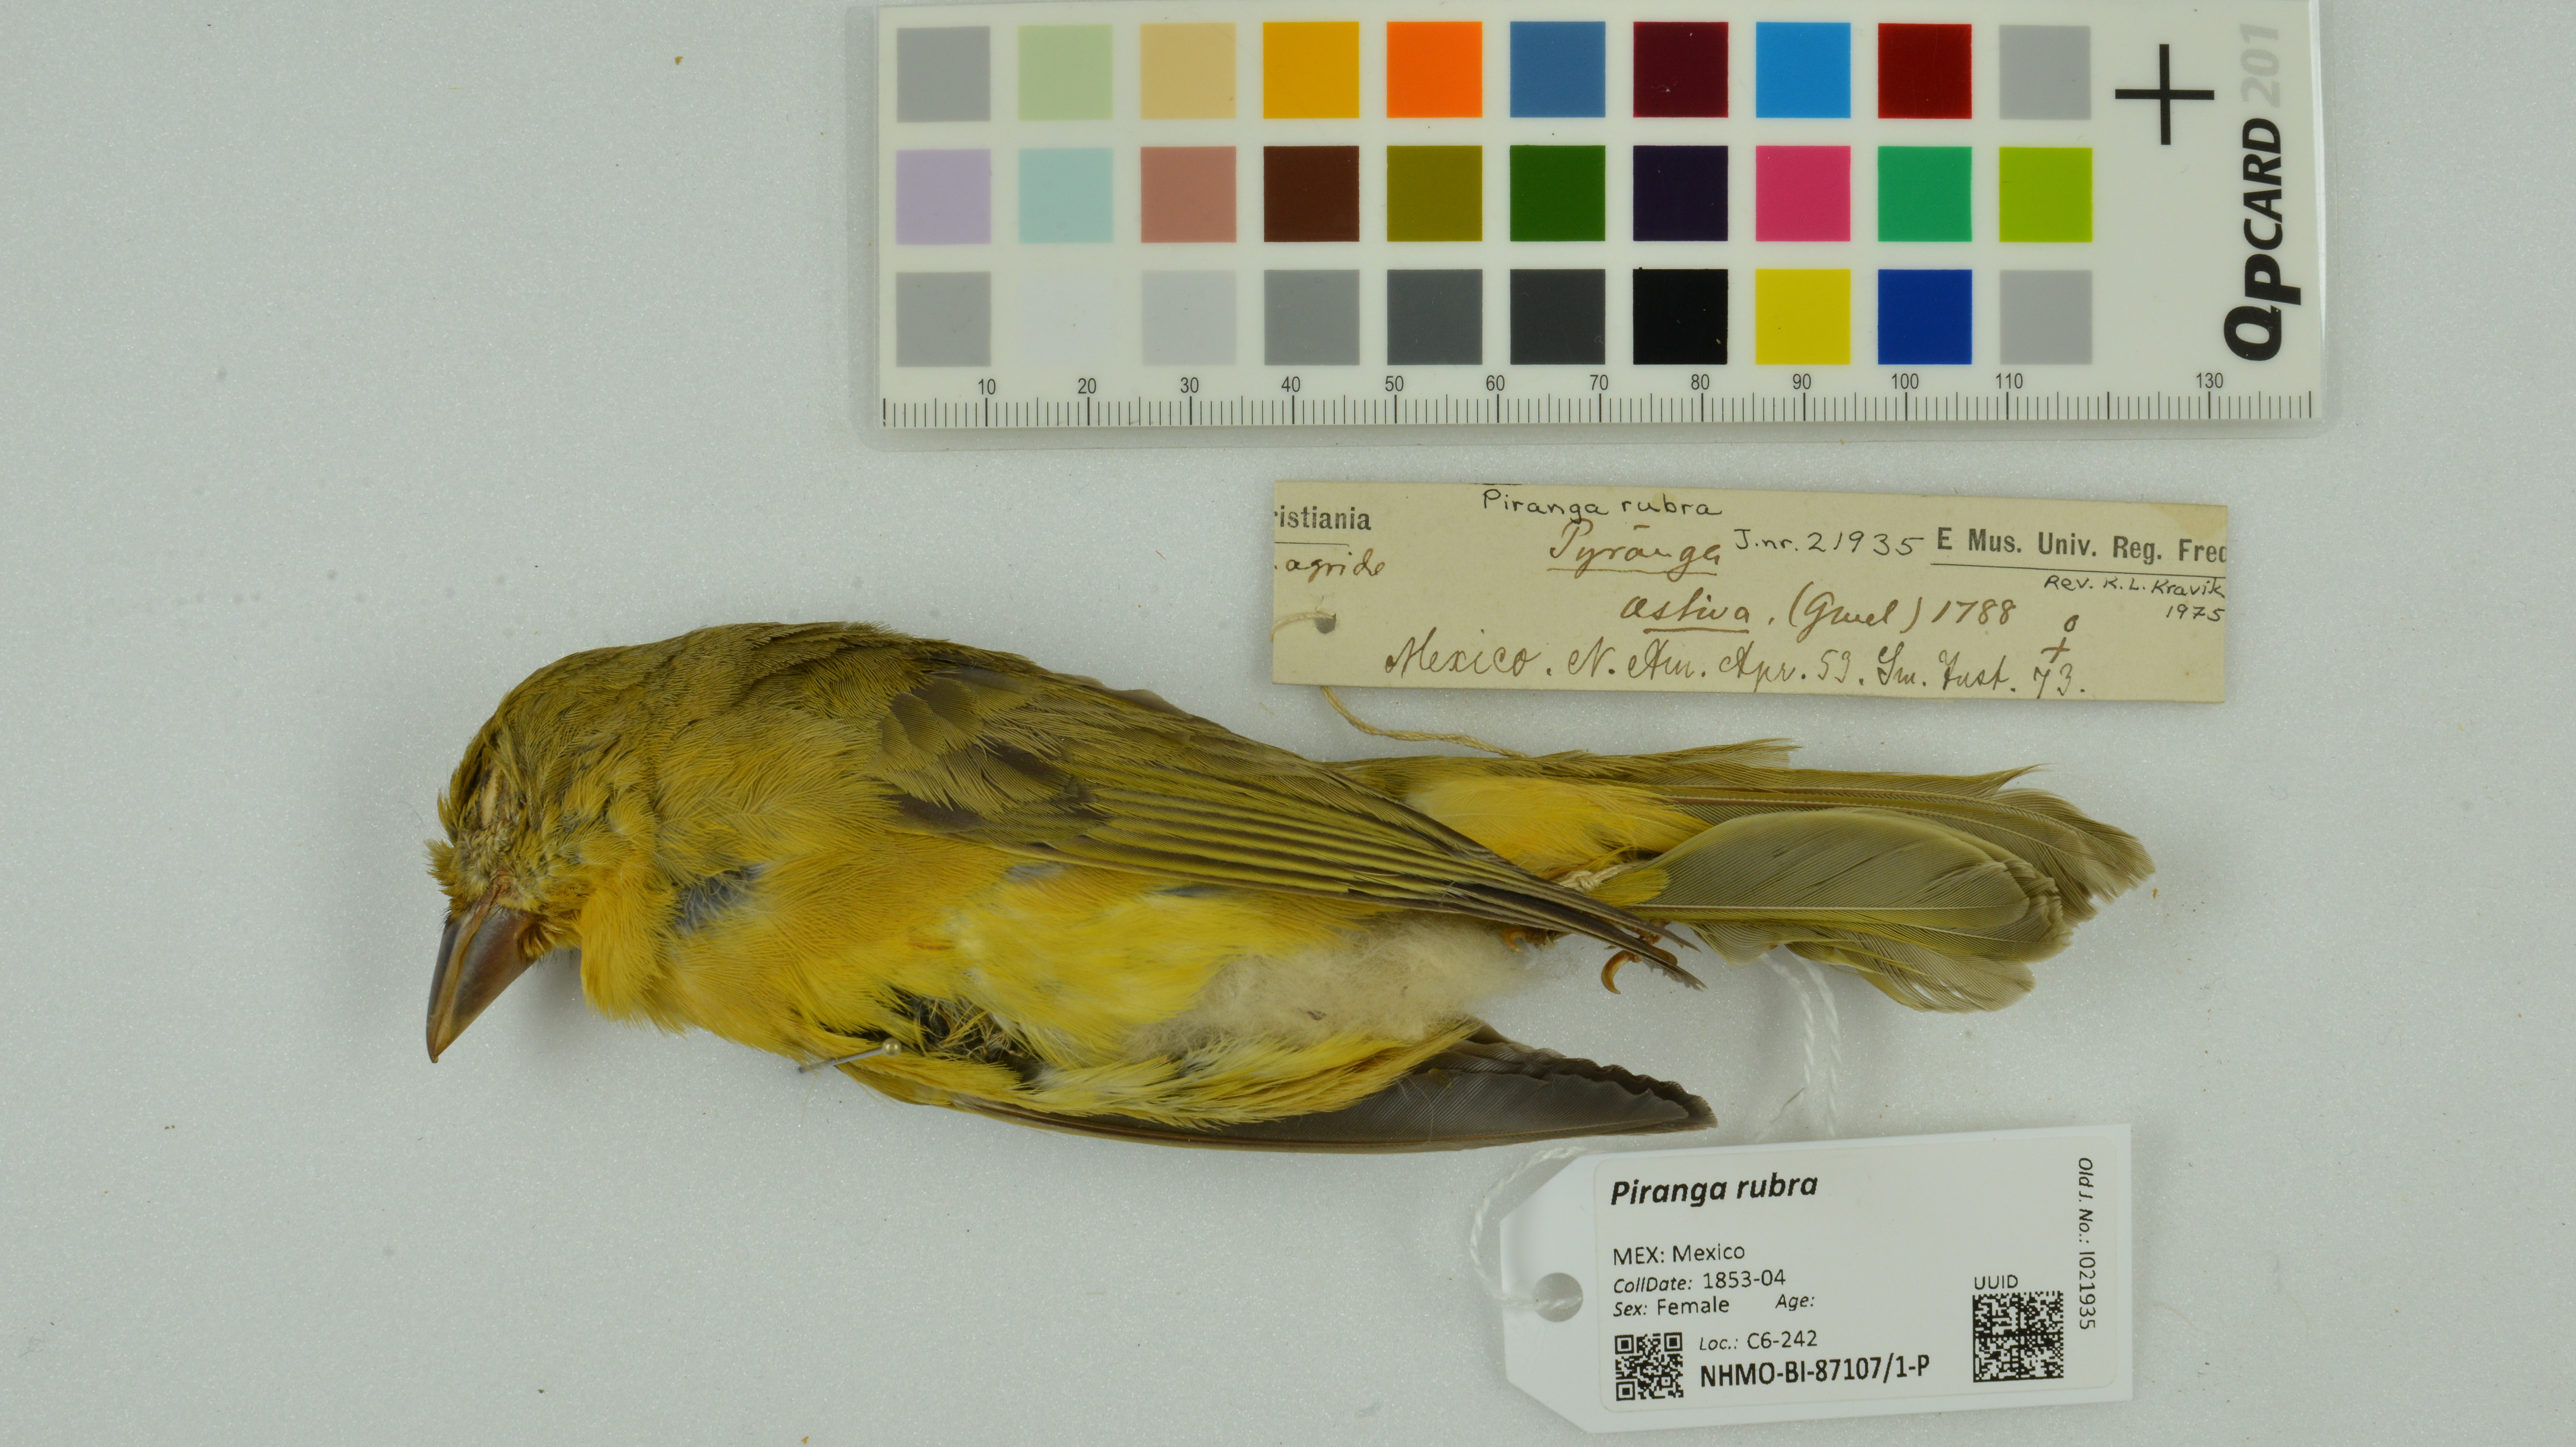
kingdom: Animalia
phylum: Chordata
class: Aves
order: Passeriformes
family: Cardinalidae
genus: Piranga
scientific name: Piranga rubra
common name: Summer tanager
